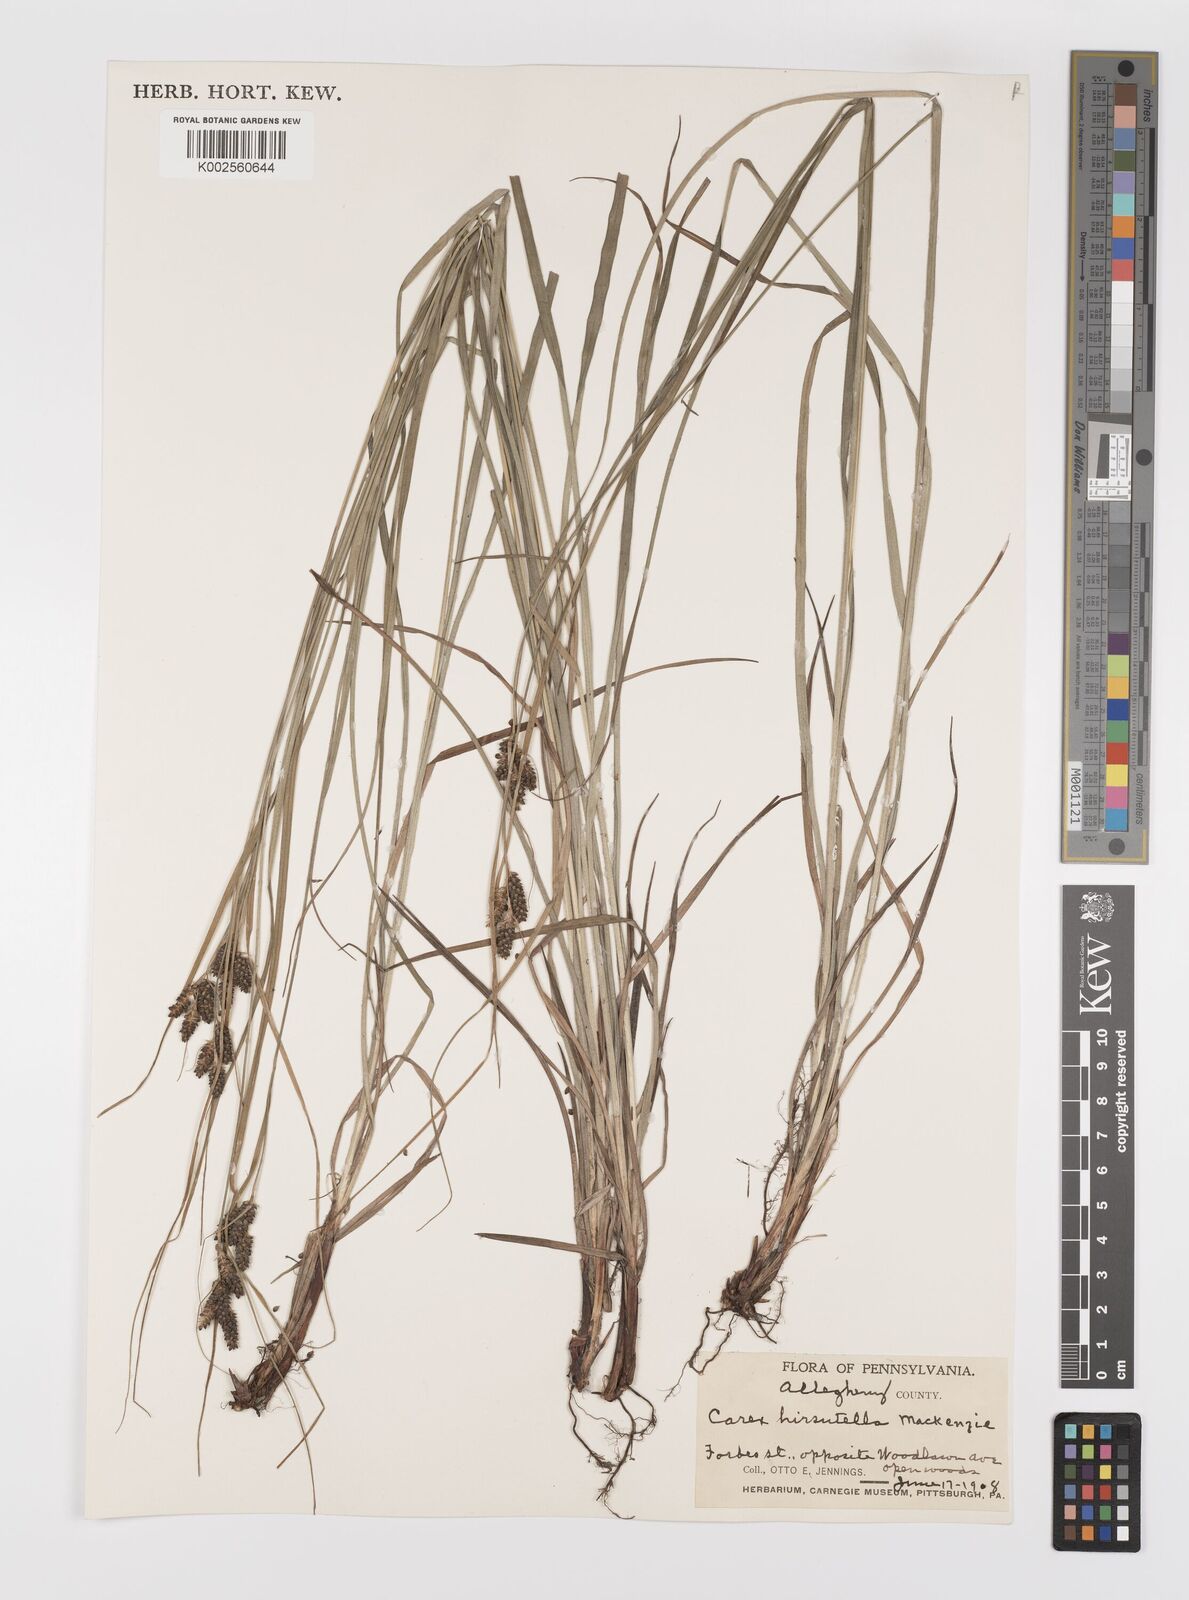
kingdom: Plantae
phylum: Tracheophyta
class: Liliopsida
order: Poales
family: Cyperaceae
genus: Carex
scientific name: Carex hirsutella
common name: Fuzzy wuzzy sedge
